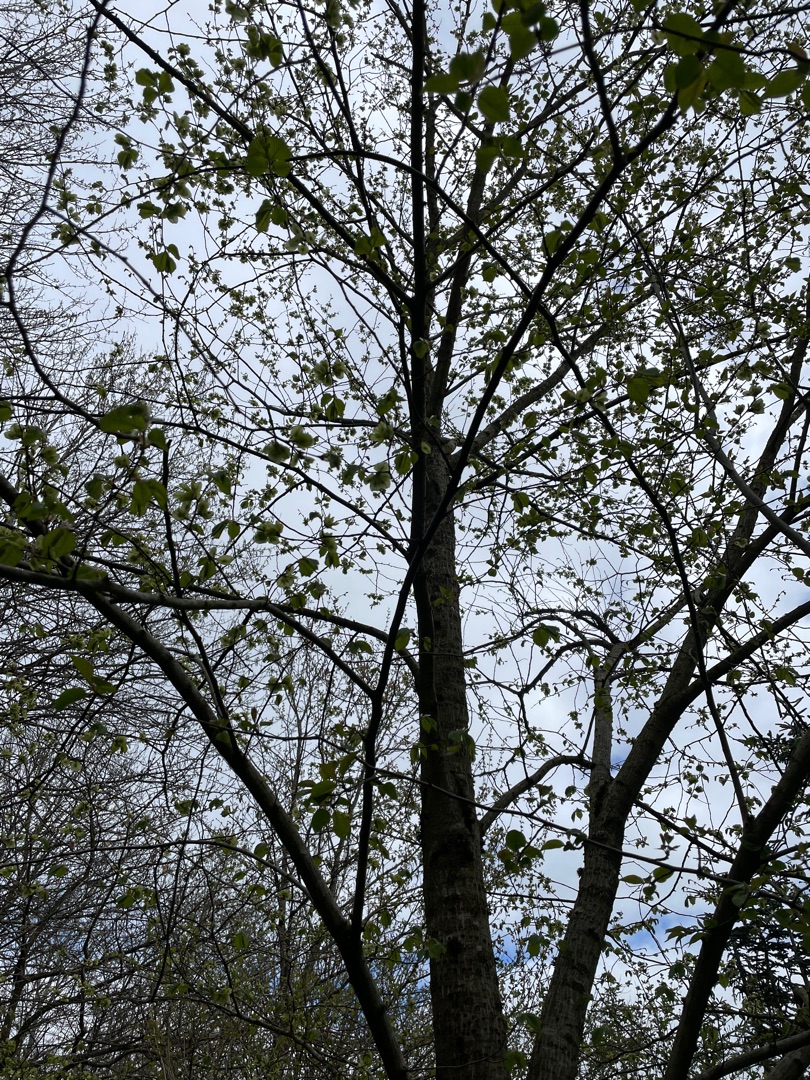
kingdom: Plantae
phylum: Tracheophyta
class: Magnoliopsida
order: Rosales
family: Ulmaceae
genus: Ulmus
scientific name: Ulmus glabra
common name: Skov-elm/storbladet elm
